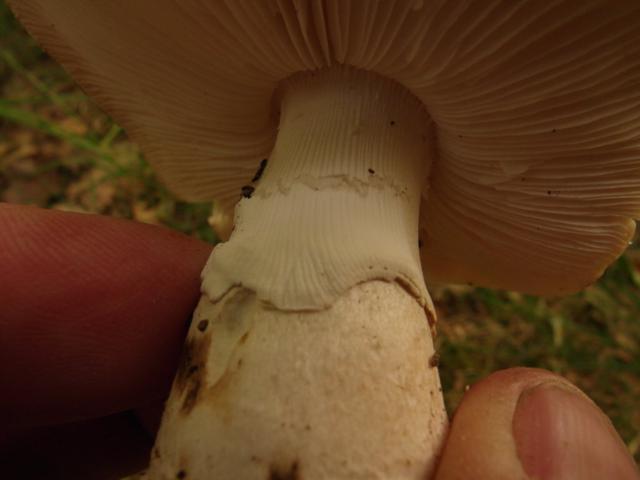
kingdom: Fungi
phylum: Basidiomycota
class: Agaricomycetes
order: Agaricales
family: Amanitaceae
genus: Amanita
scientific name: Amanita
